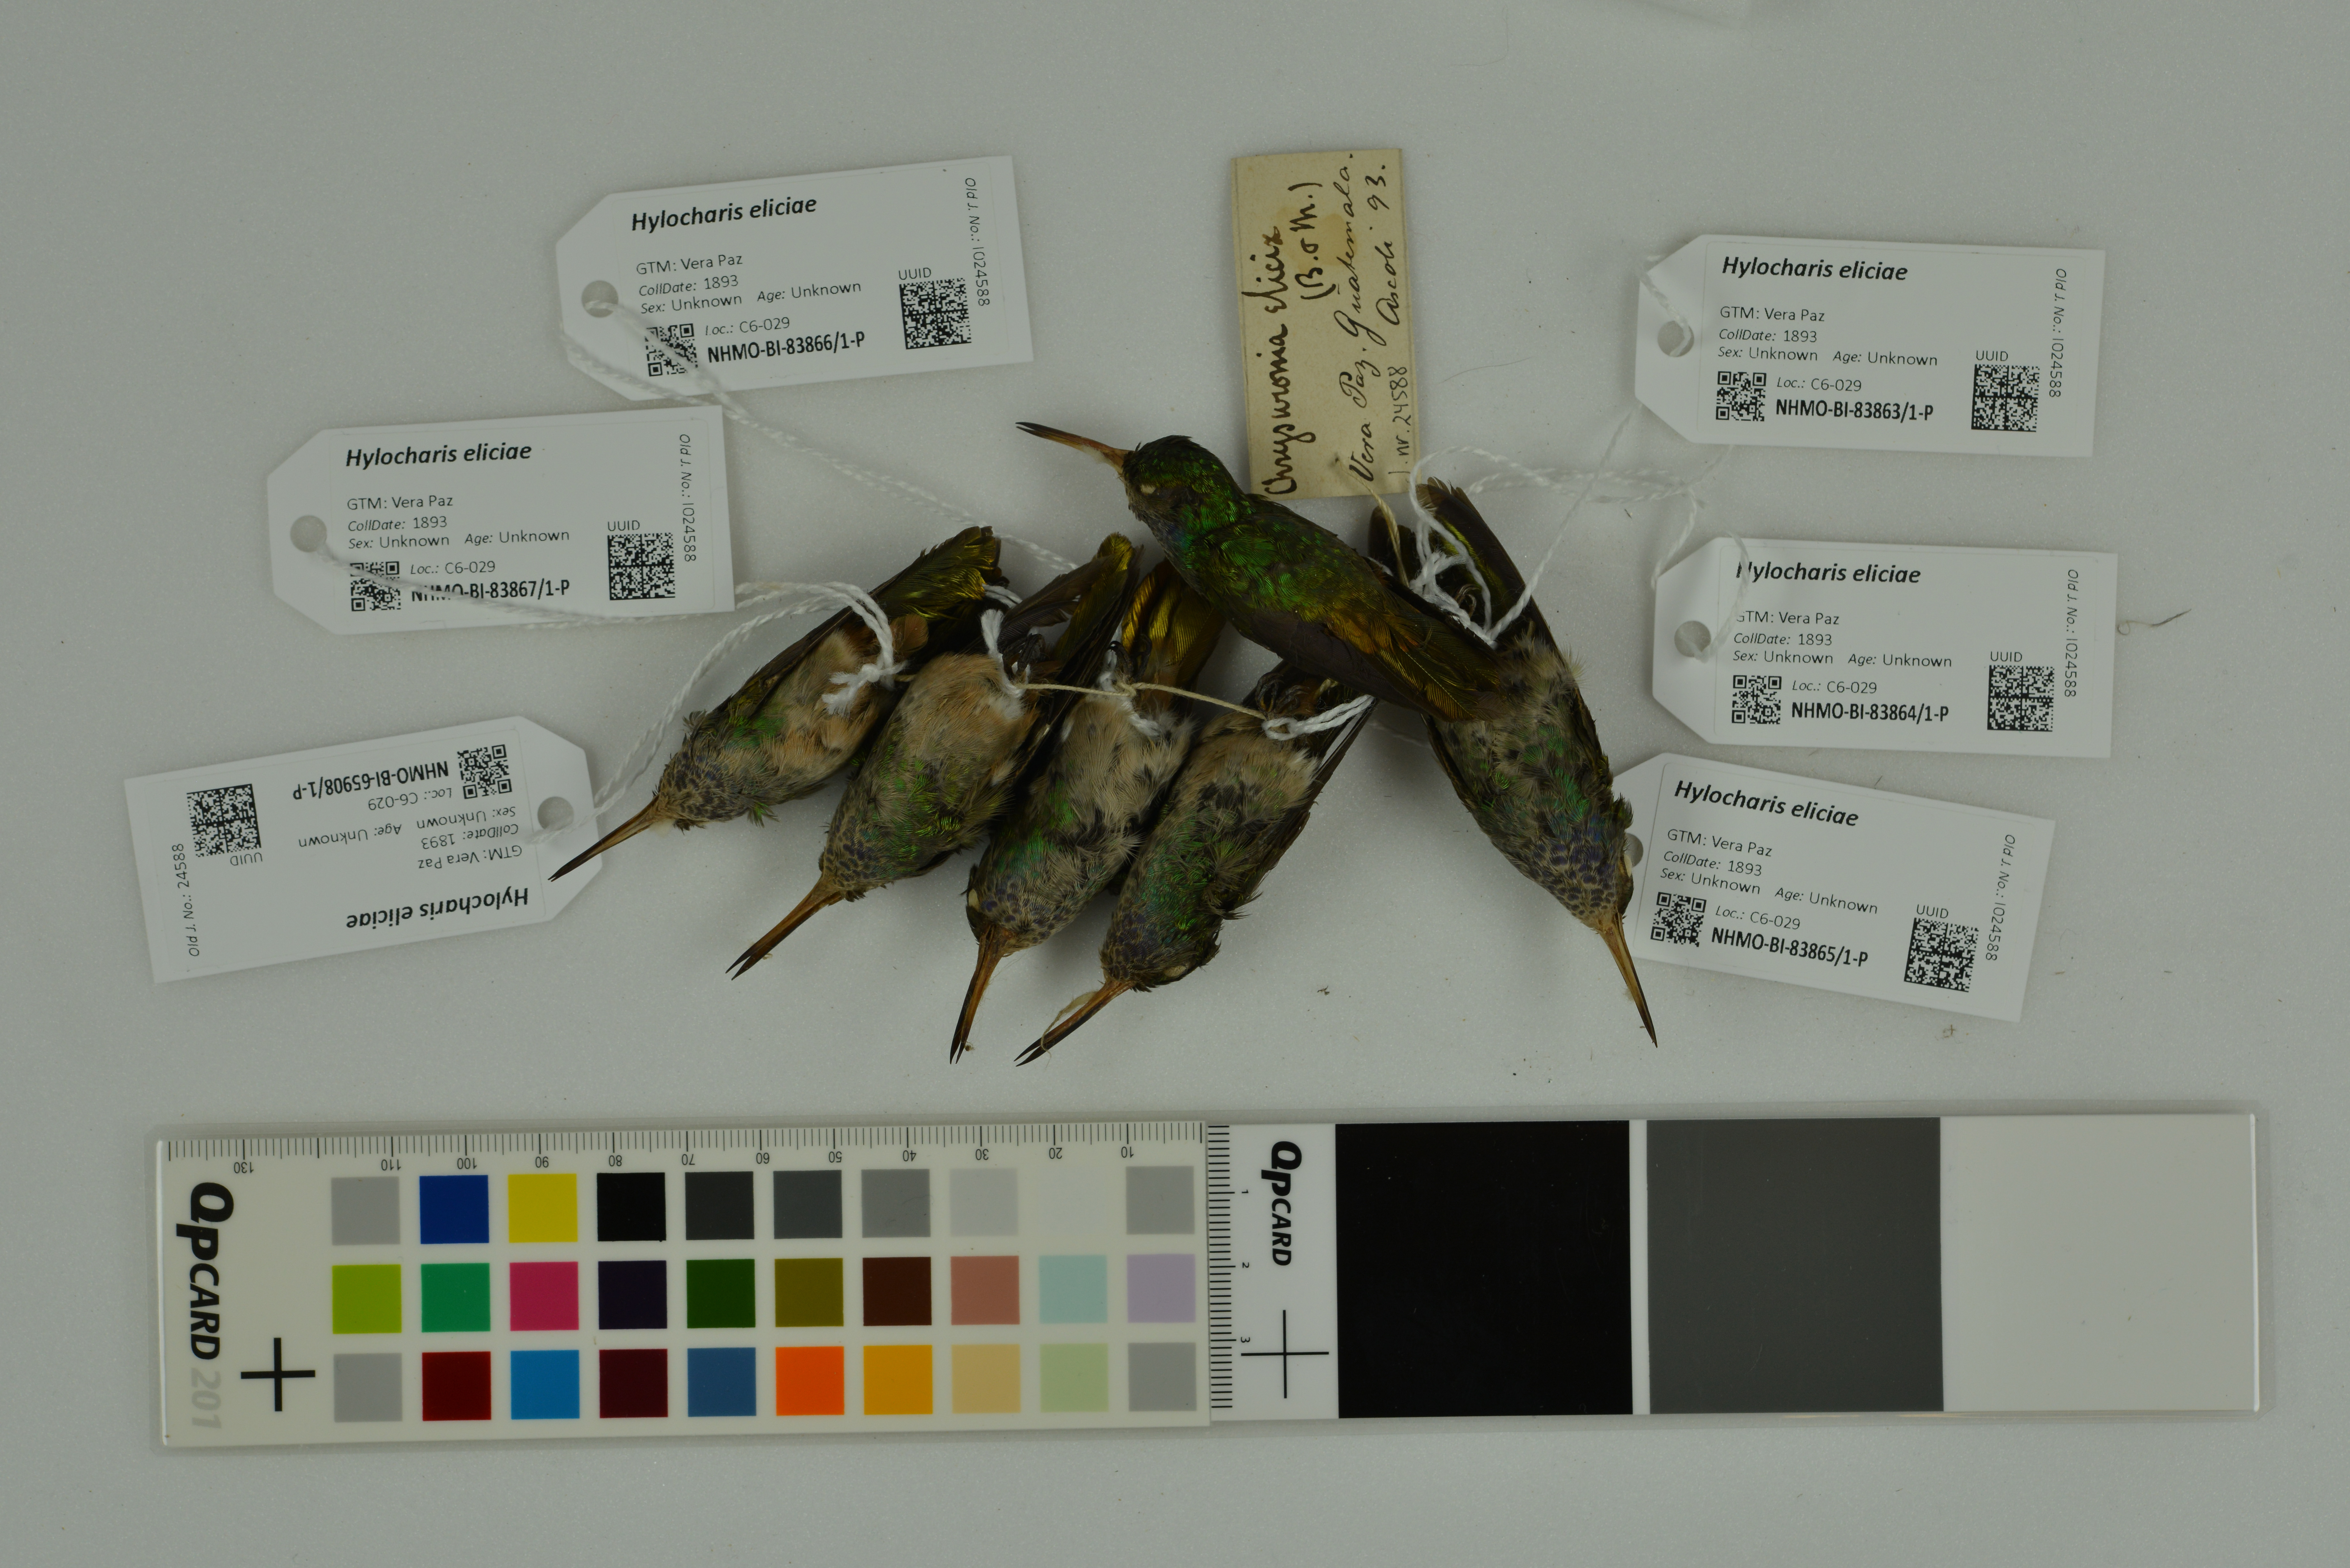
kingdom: Animalia
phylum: Chordata
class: Aves
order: Apodiformes
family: Trochilidae
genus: Chlorestes
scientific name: Chlorestes eliciae
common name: Blue-throated sapphire
